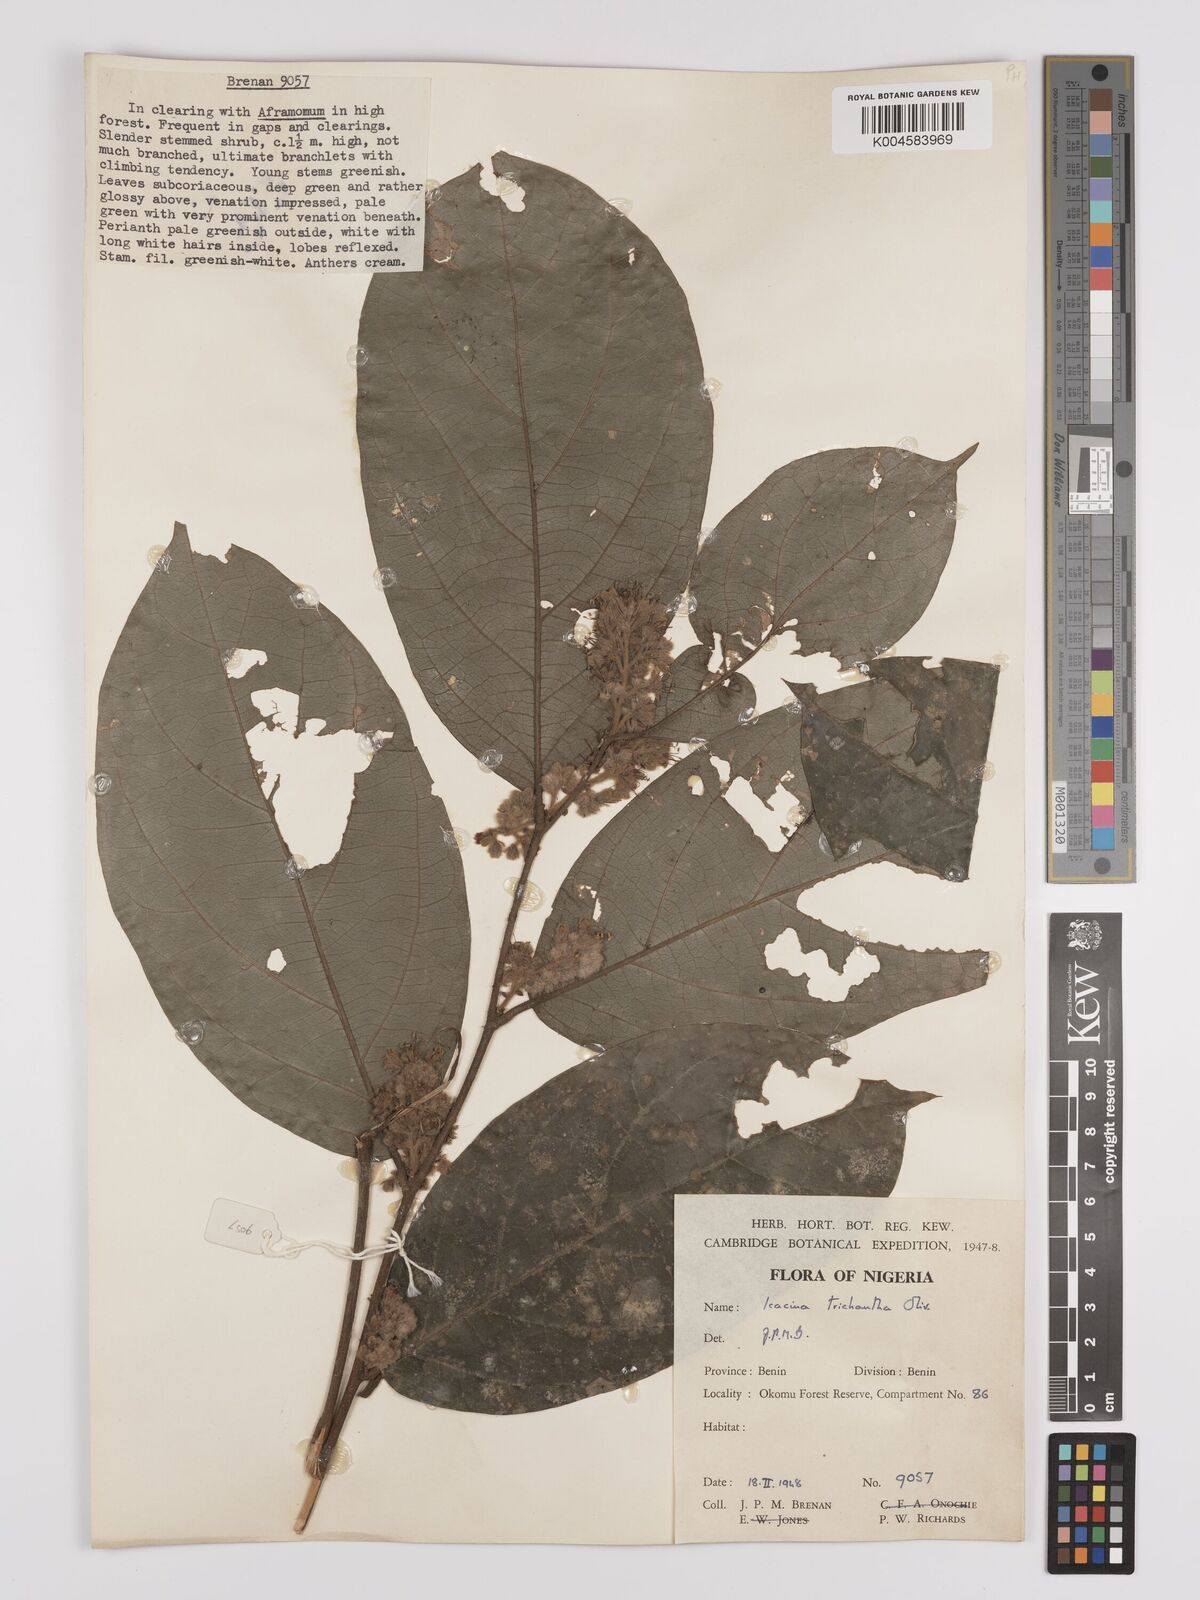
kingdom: Plantae
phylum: Tracheophyta
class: Magnoliopsida
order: Icacinales
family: Icacinaceae
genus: Icacina
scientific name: Icacina trichantha
